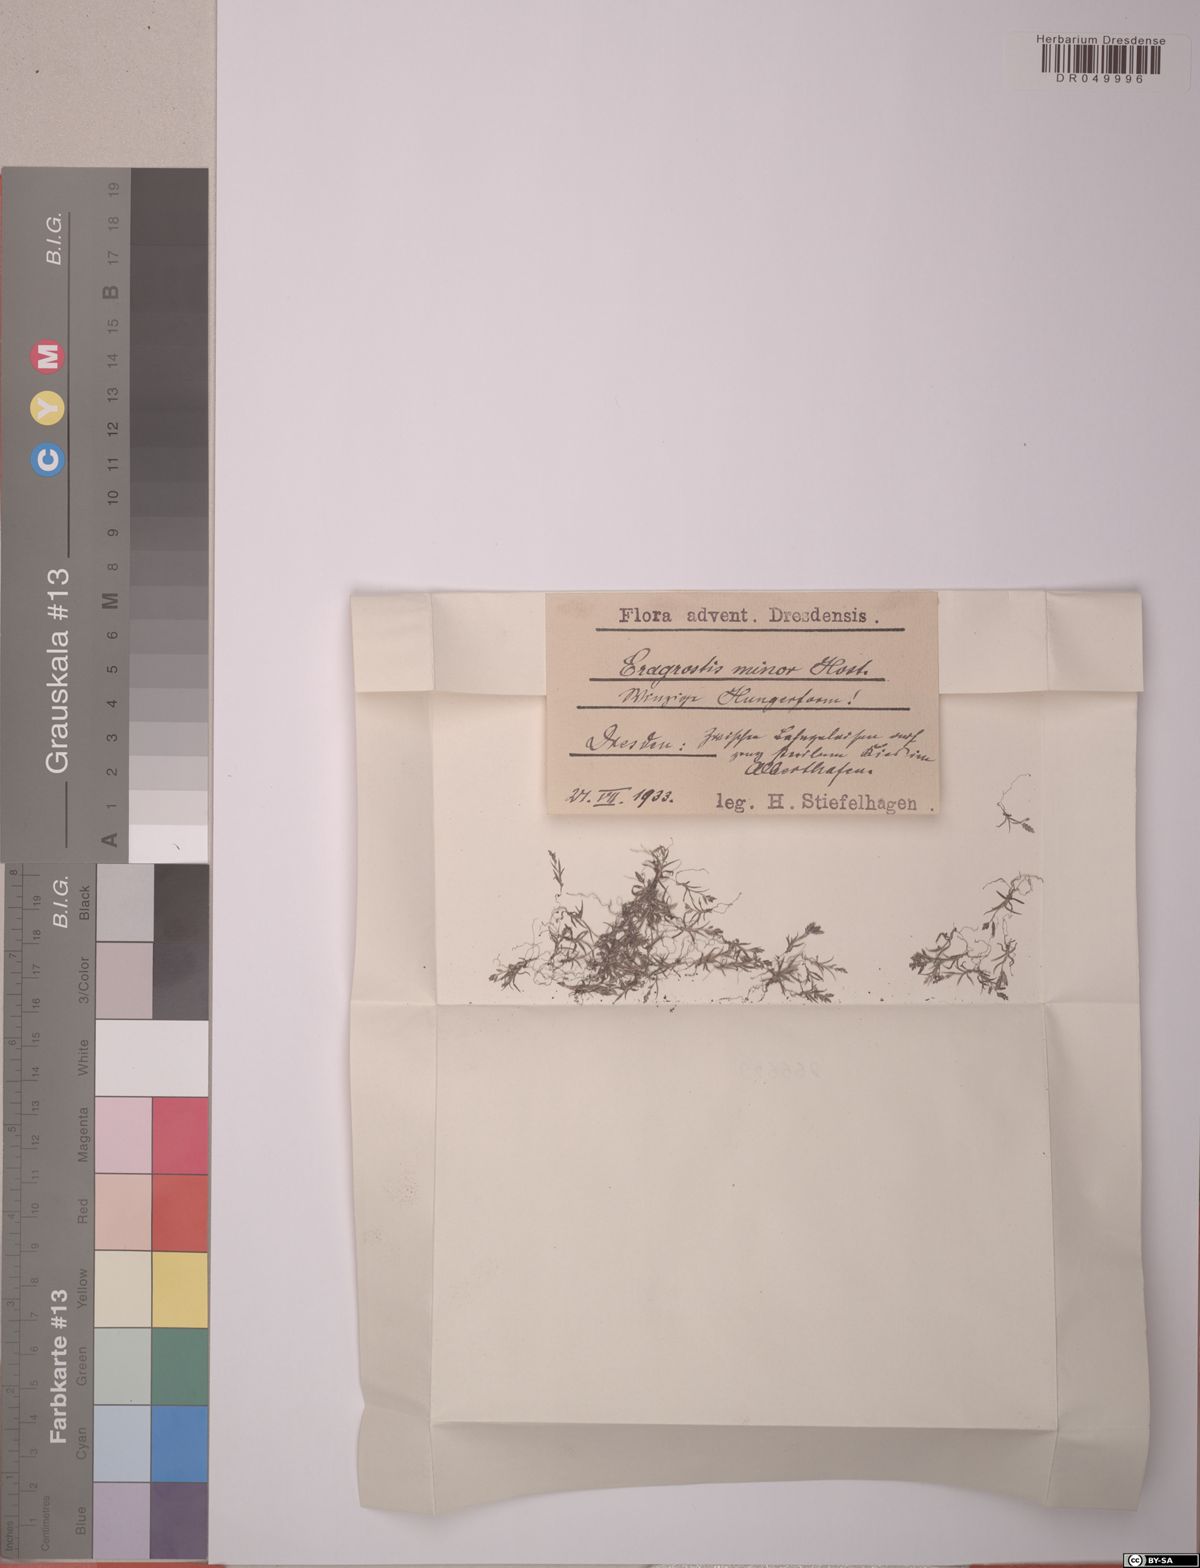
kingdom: Plantae
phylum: Tracheophyta
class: Liliopsida
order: Poales
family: Poaceae
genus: Eragrostis
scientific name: Eragrostis minor
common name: Small love-grass
